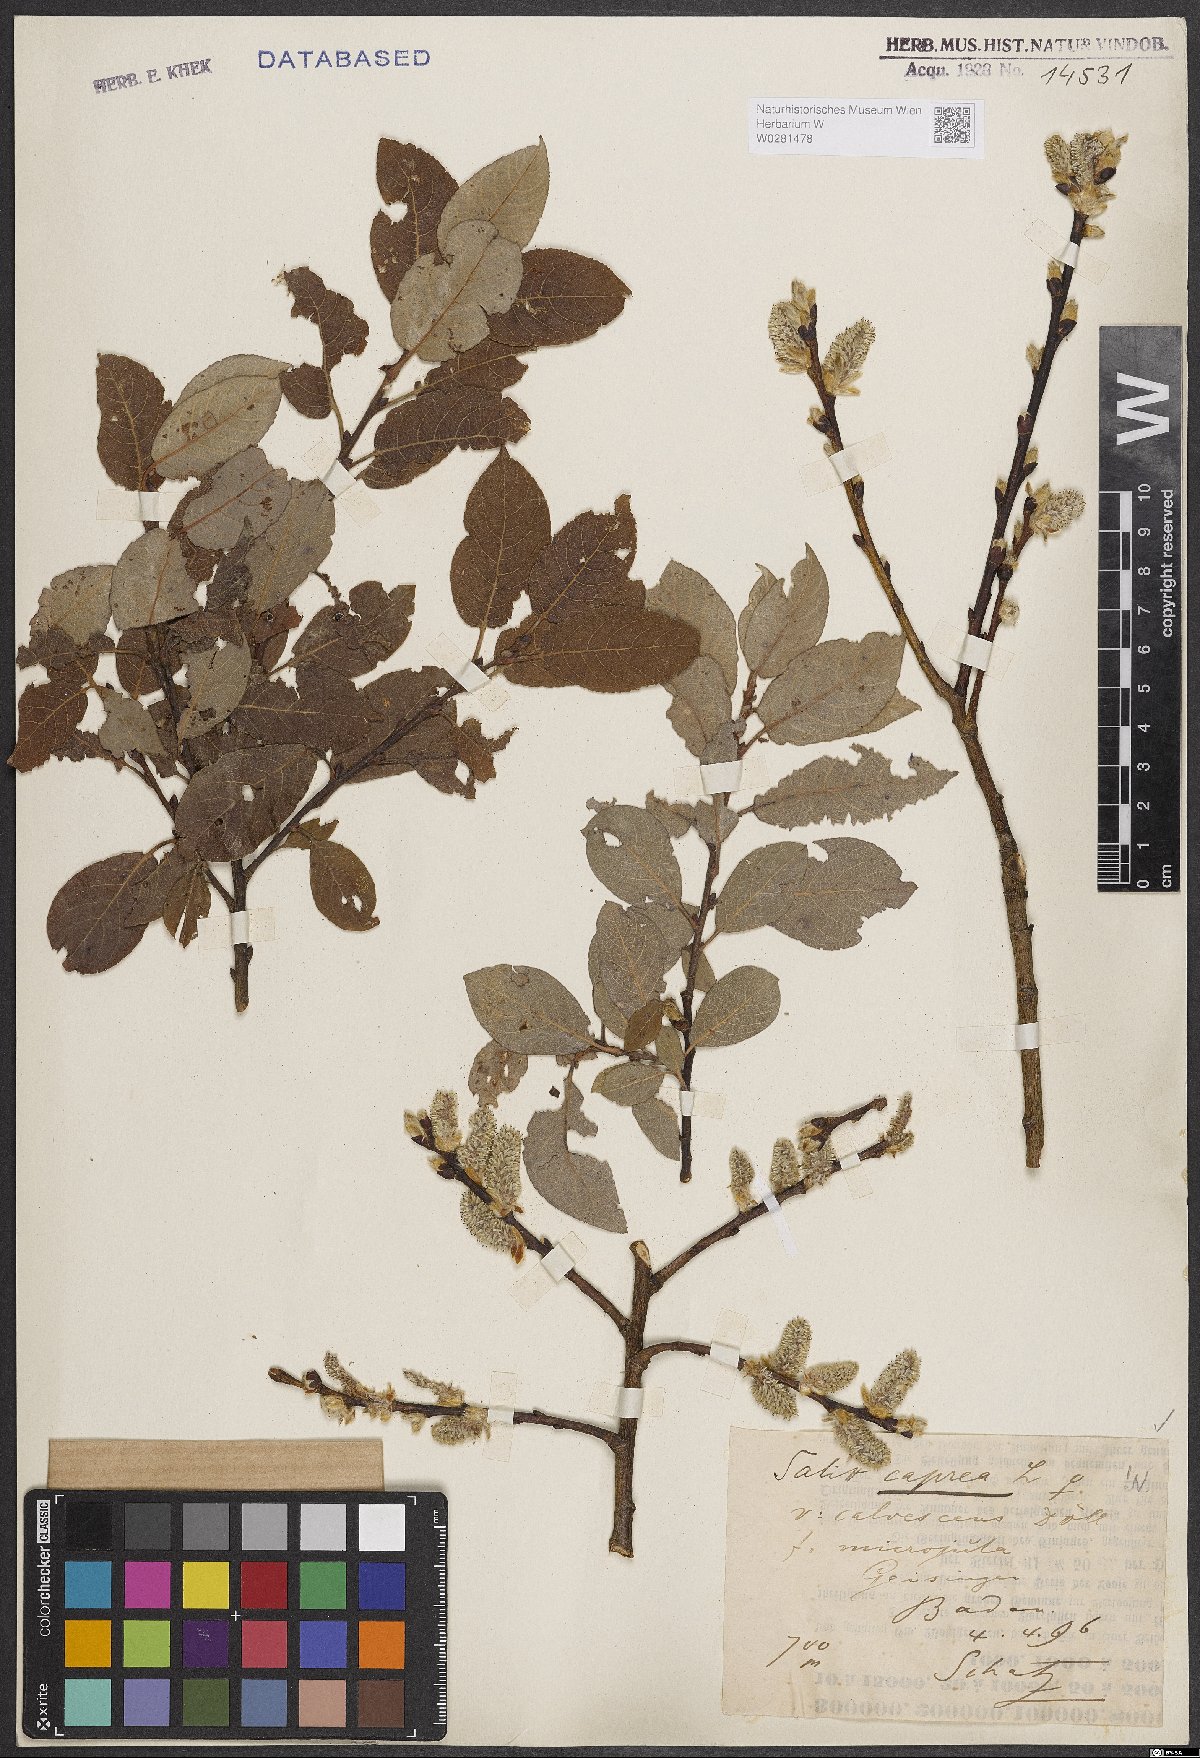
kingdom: Plantae
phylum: Tracheophyta
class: Magnoliopsida
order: Malpighiales
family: Salicaceae
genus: Salix
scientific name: Salix caprea
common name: Goat willow
